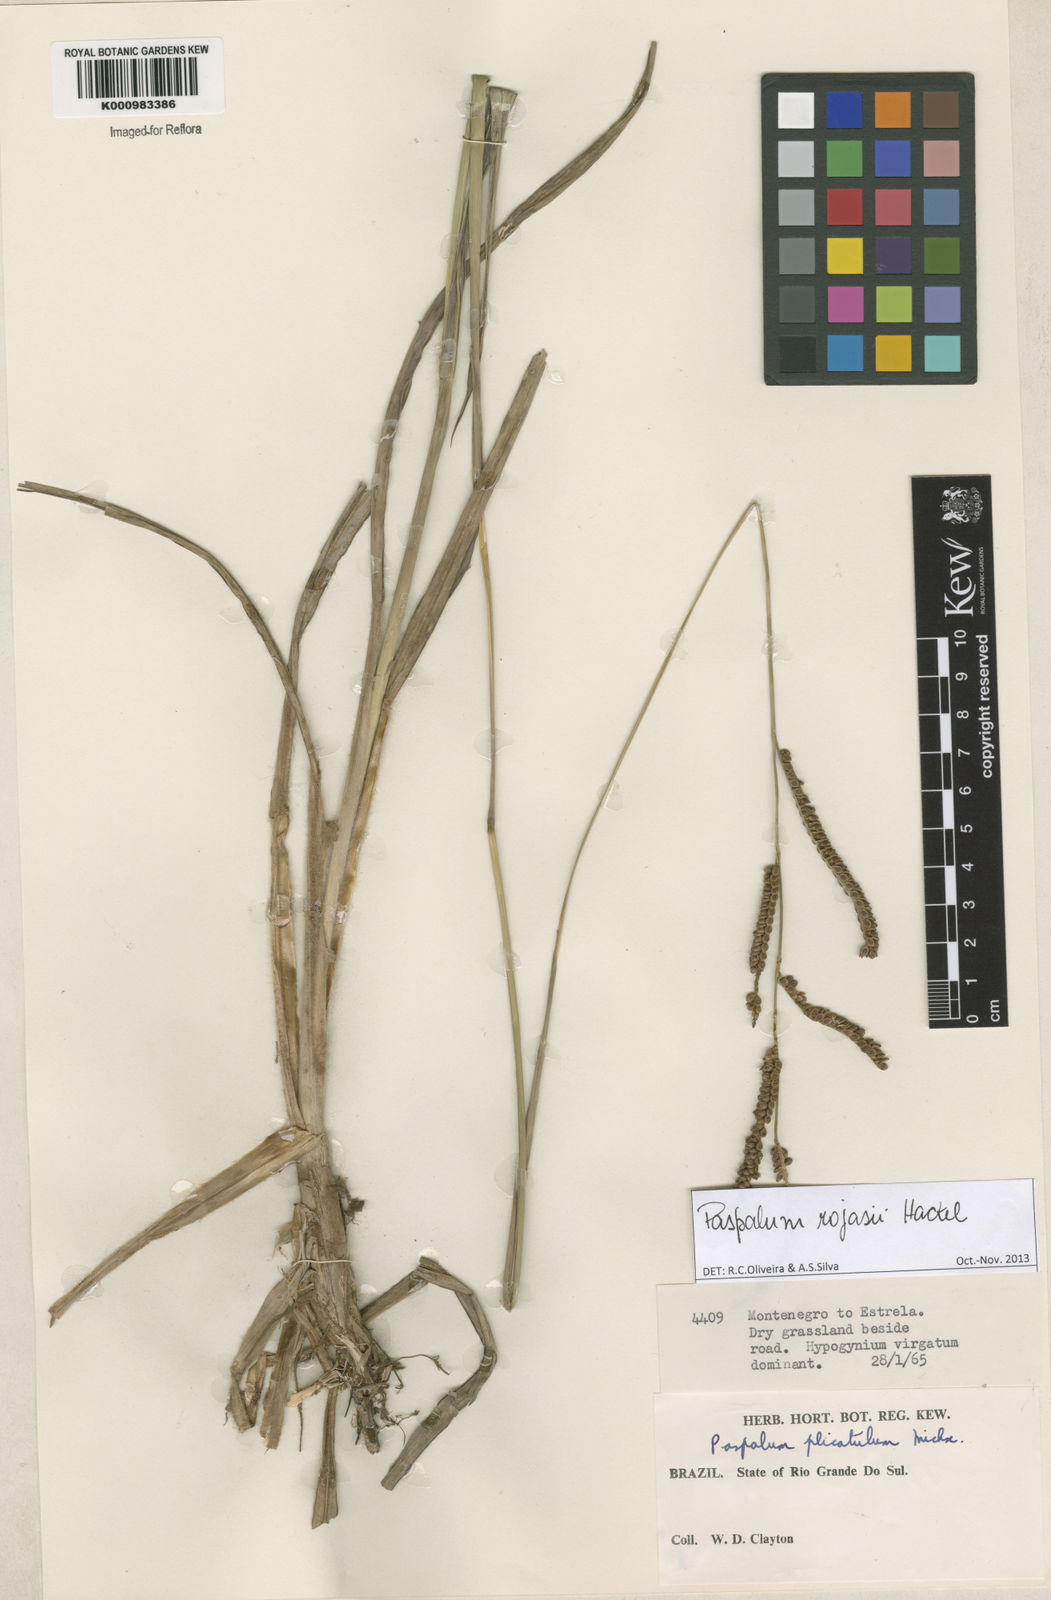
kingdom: Plantae
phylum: Tracheophyta
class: Liliopsida
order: Poales
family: Poaceae
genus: Paspalum
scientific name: Paspalum guenoarum
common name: Wintergreen paspalum
